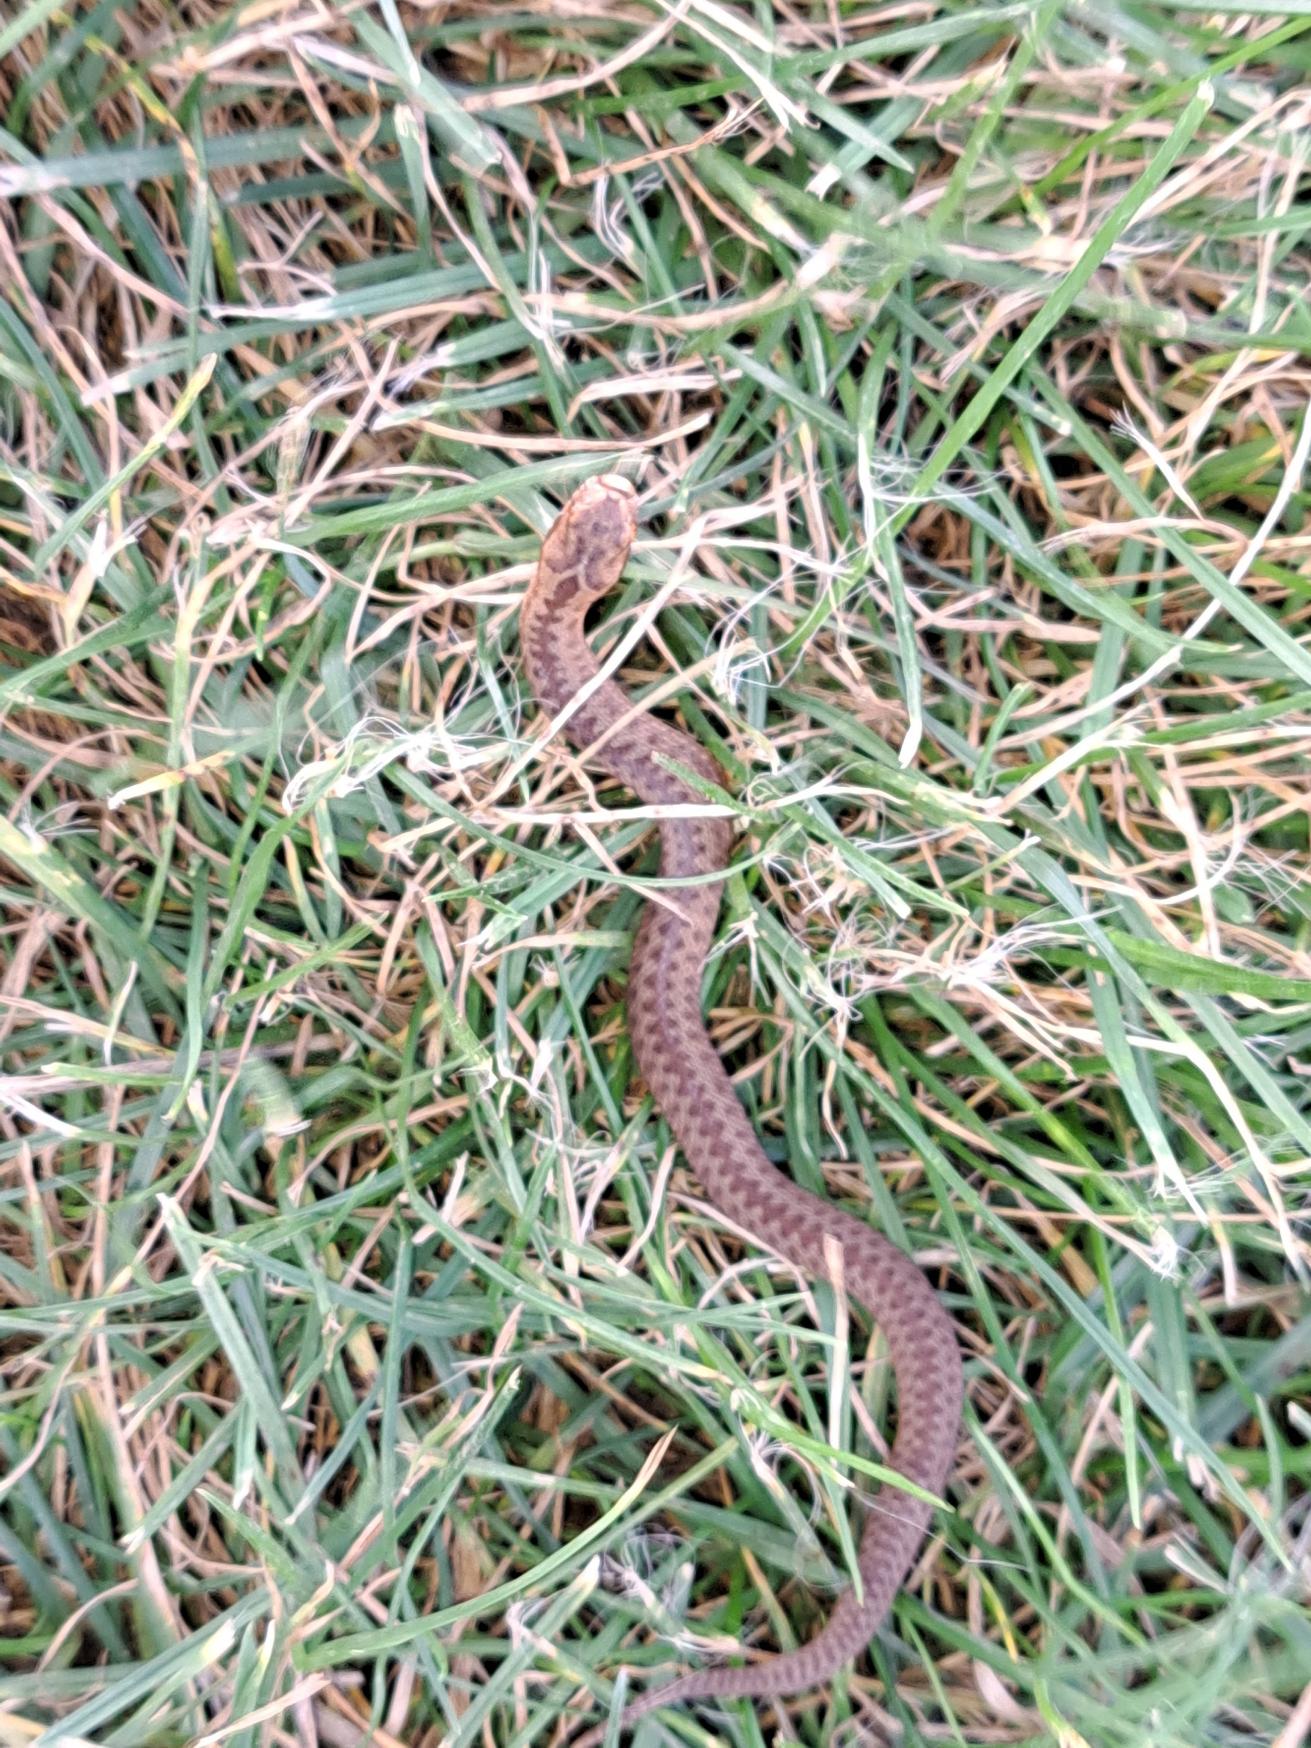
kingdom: Animalia
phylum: Chordata
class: Squamata
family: Viperidae
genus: Vipera
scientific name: Vipera berus
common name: Hugorm
